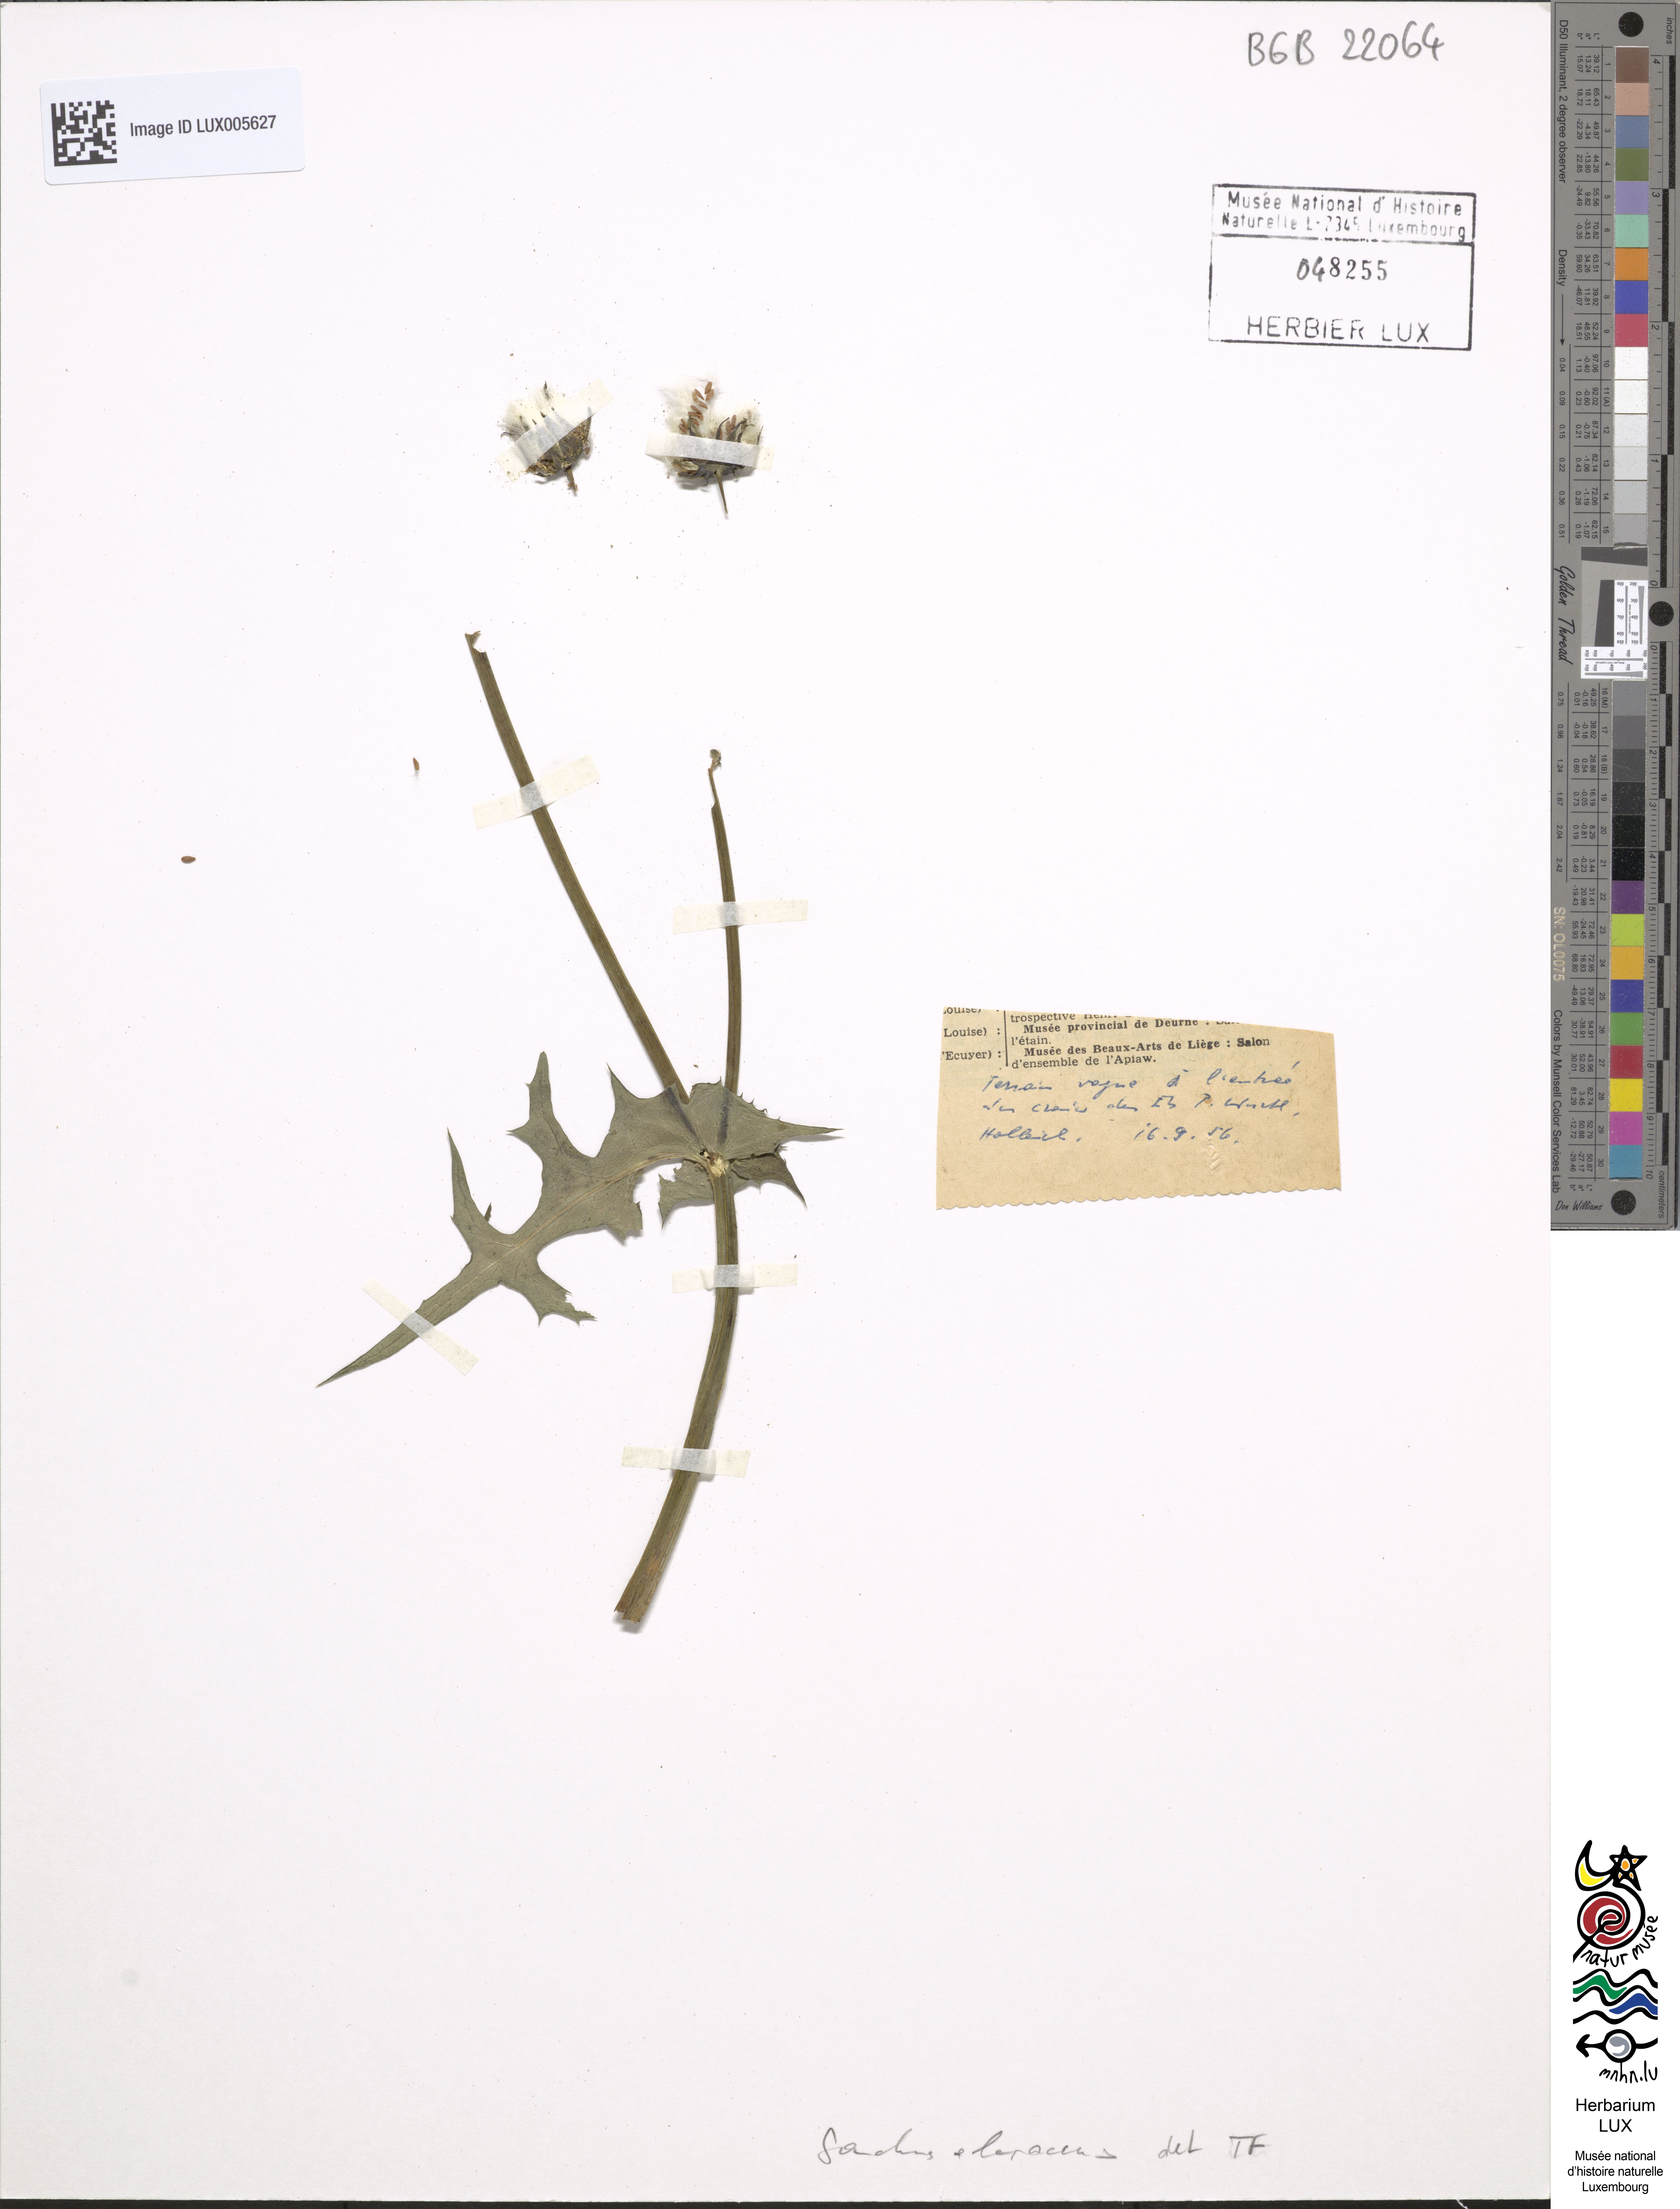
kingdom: Plantae
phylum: Tracheophyta
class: Magnoliopsida
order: Asterales
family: Asteraceae
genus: Sonchus
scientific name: Sonchus oleraceus
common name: Common sowthistle
